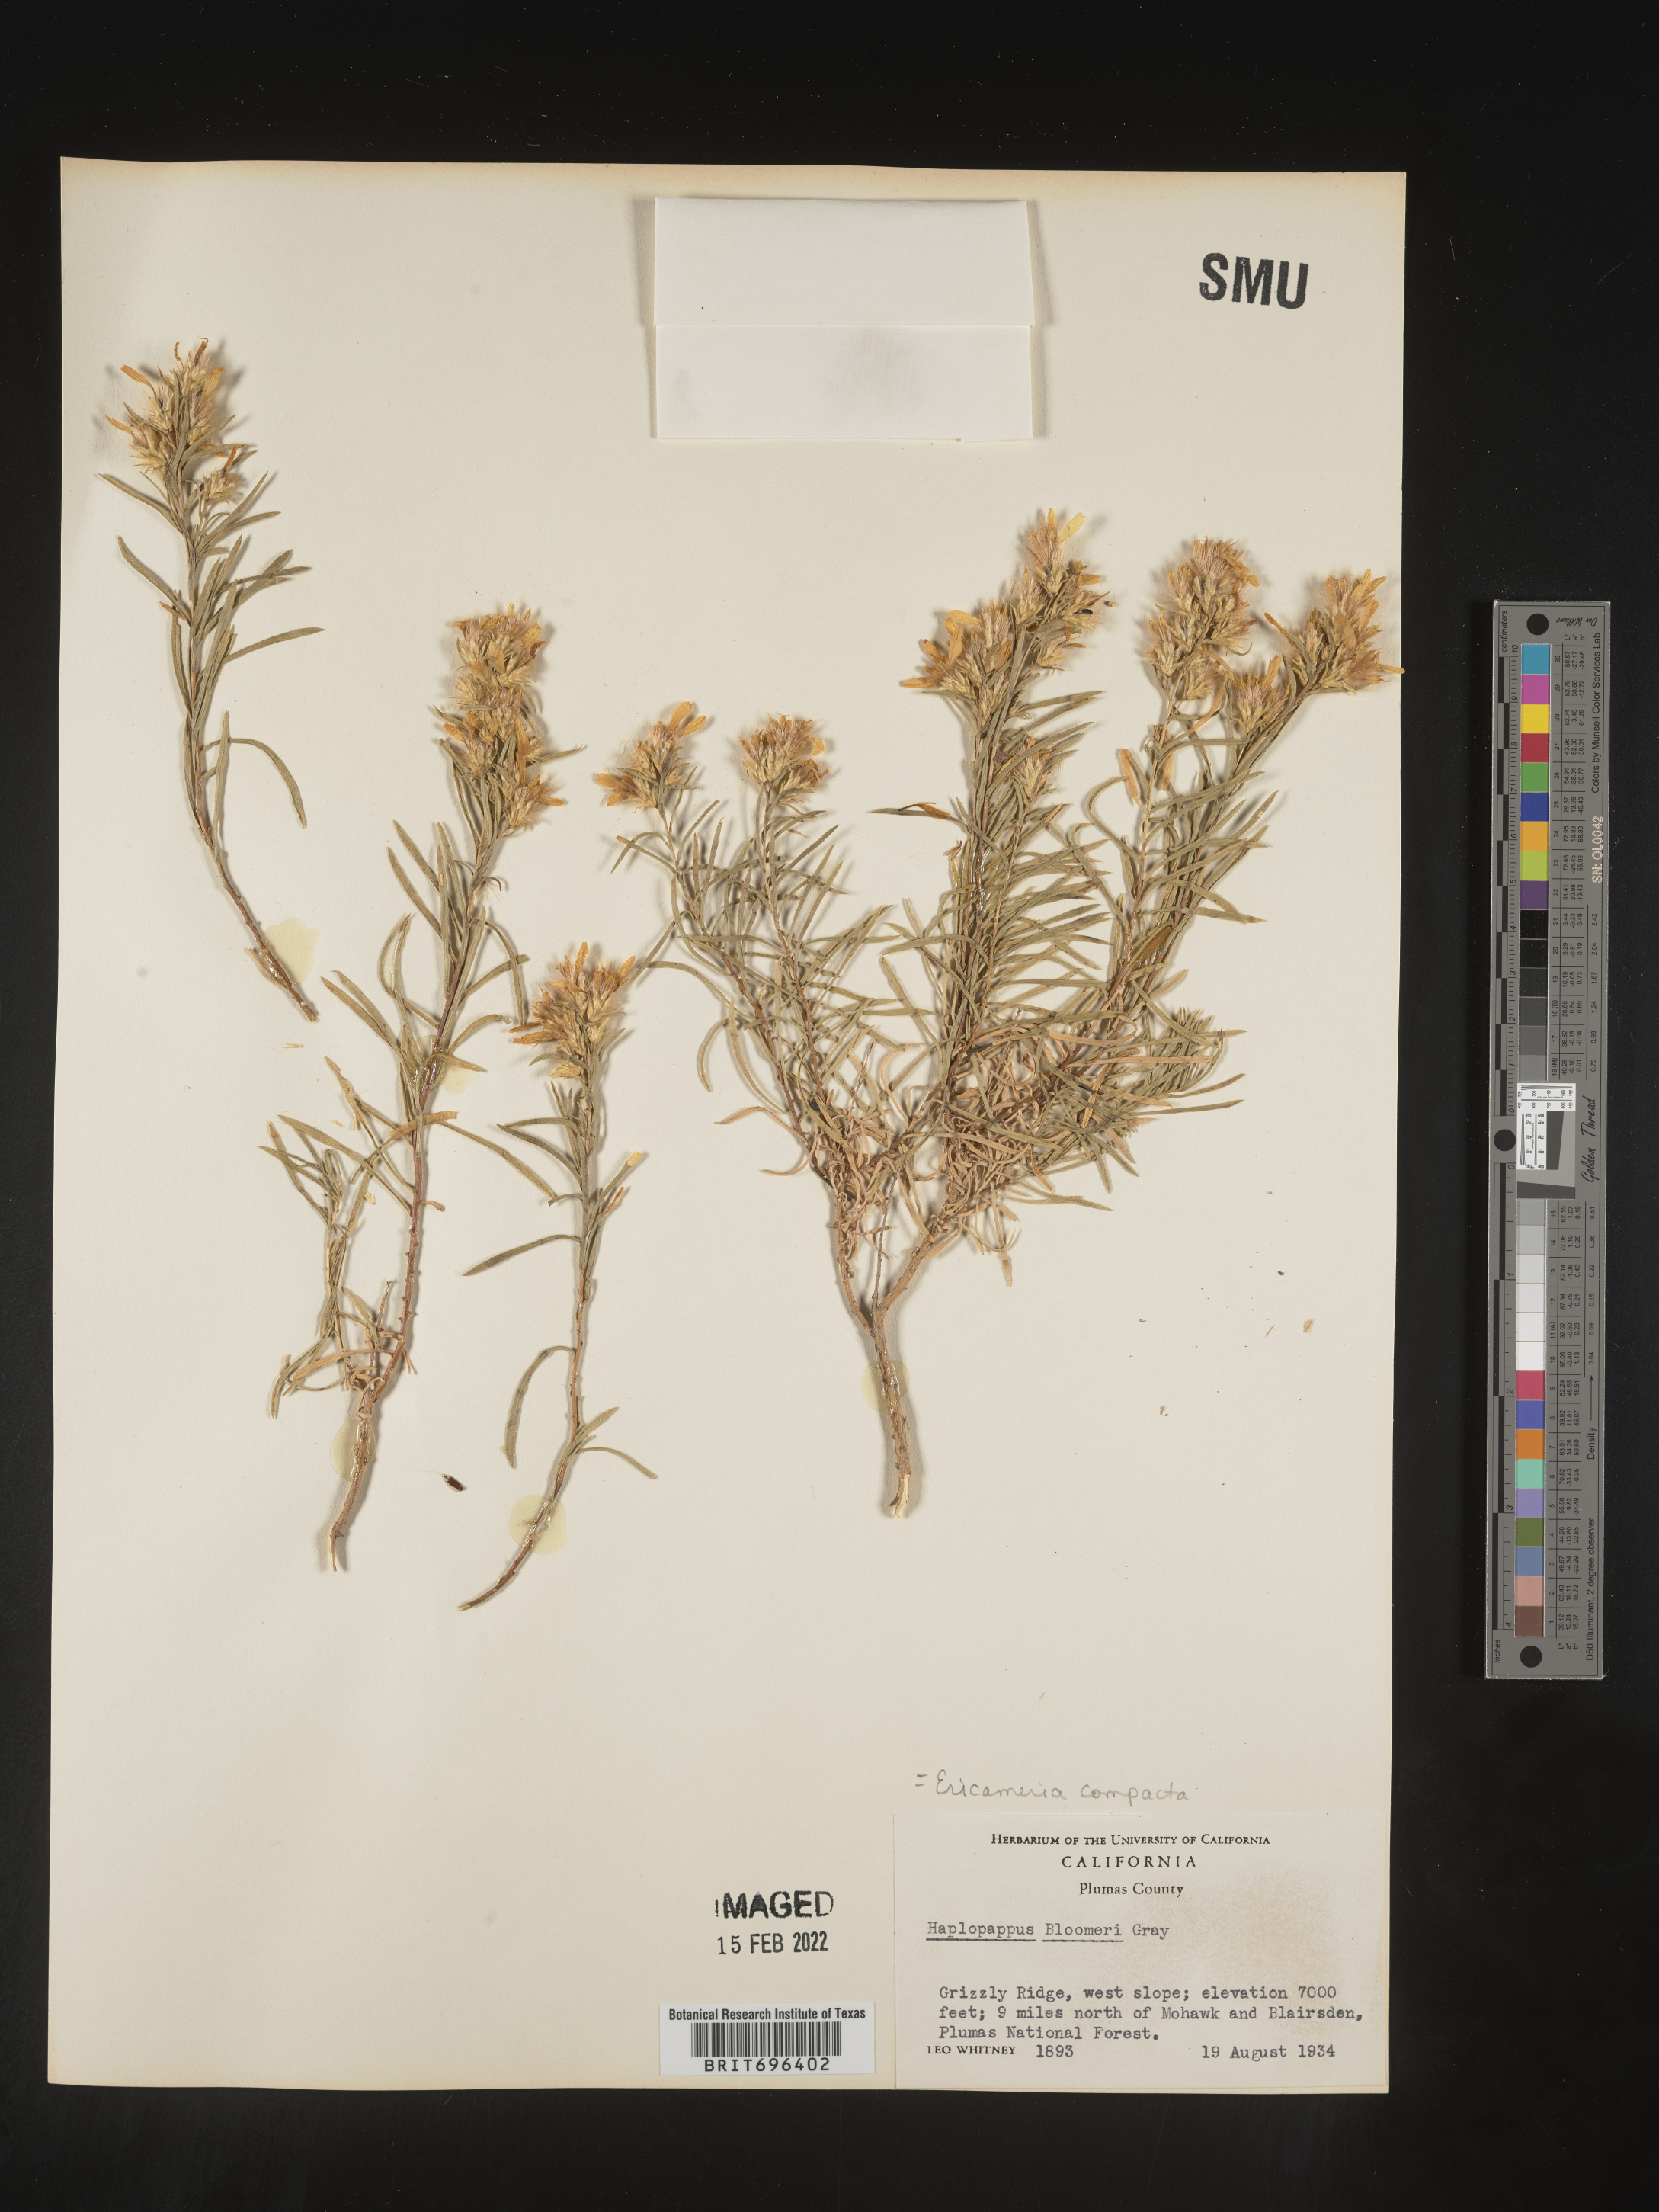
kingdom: Plantae
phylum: Tracheophyta
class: Magnoliopsida
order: Asterales
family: Asteraceae
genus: Ericameria
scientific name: Ericameria bloomeri
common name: Bloomer's goldenbush
